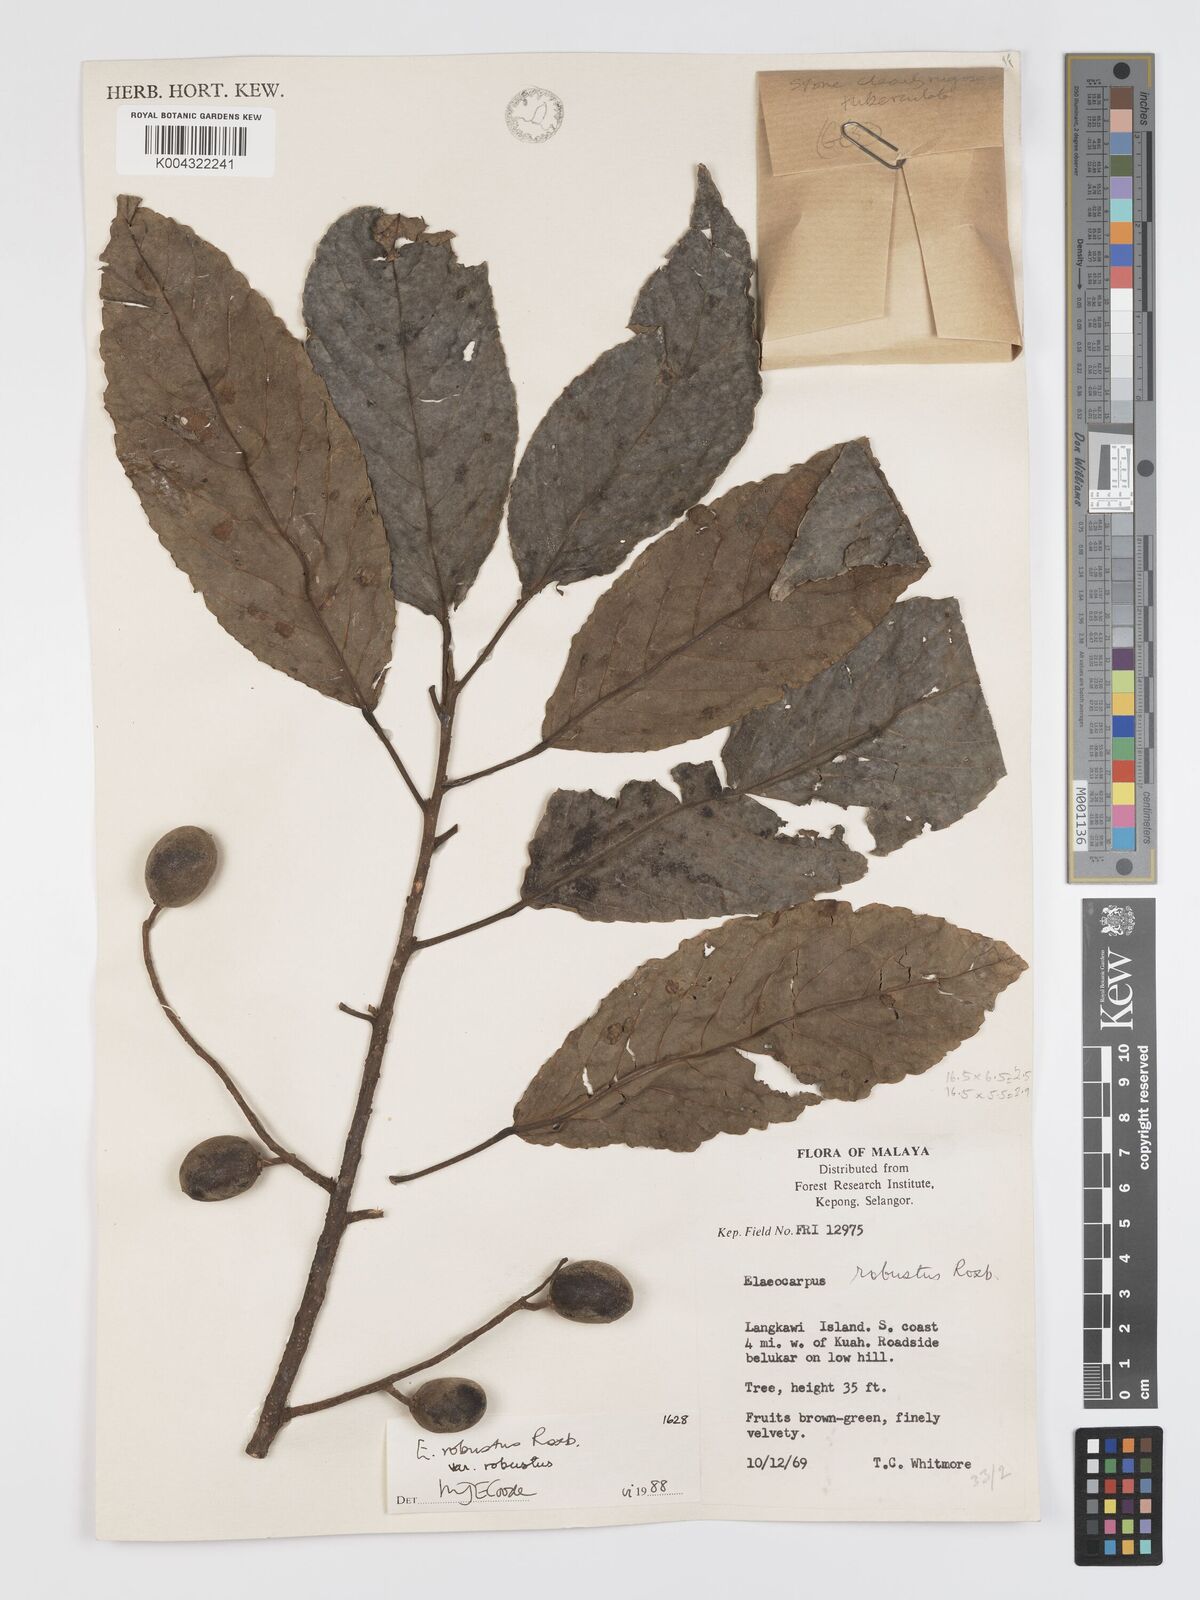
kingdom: Plantae
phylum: Tracheophyta
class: Magnoliopsida
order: Oxalidales
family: Elaeocarpaceae
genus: Elaeocarpus
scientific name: Elaeocarpus robustus
